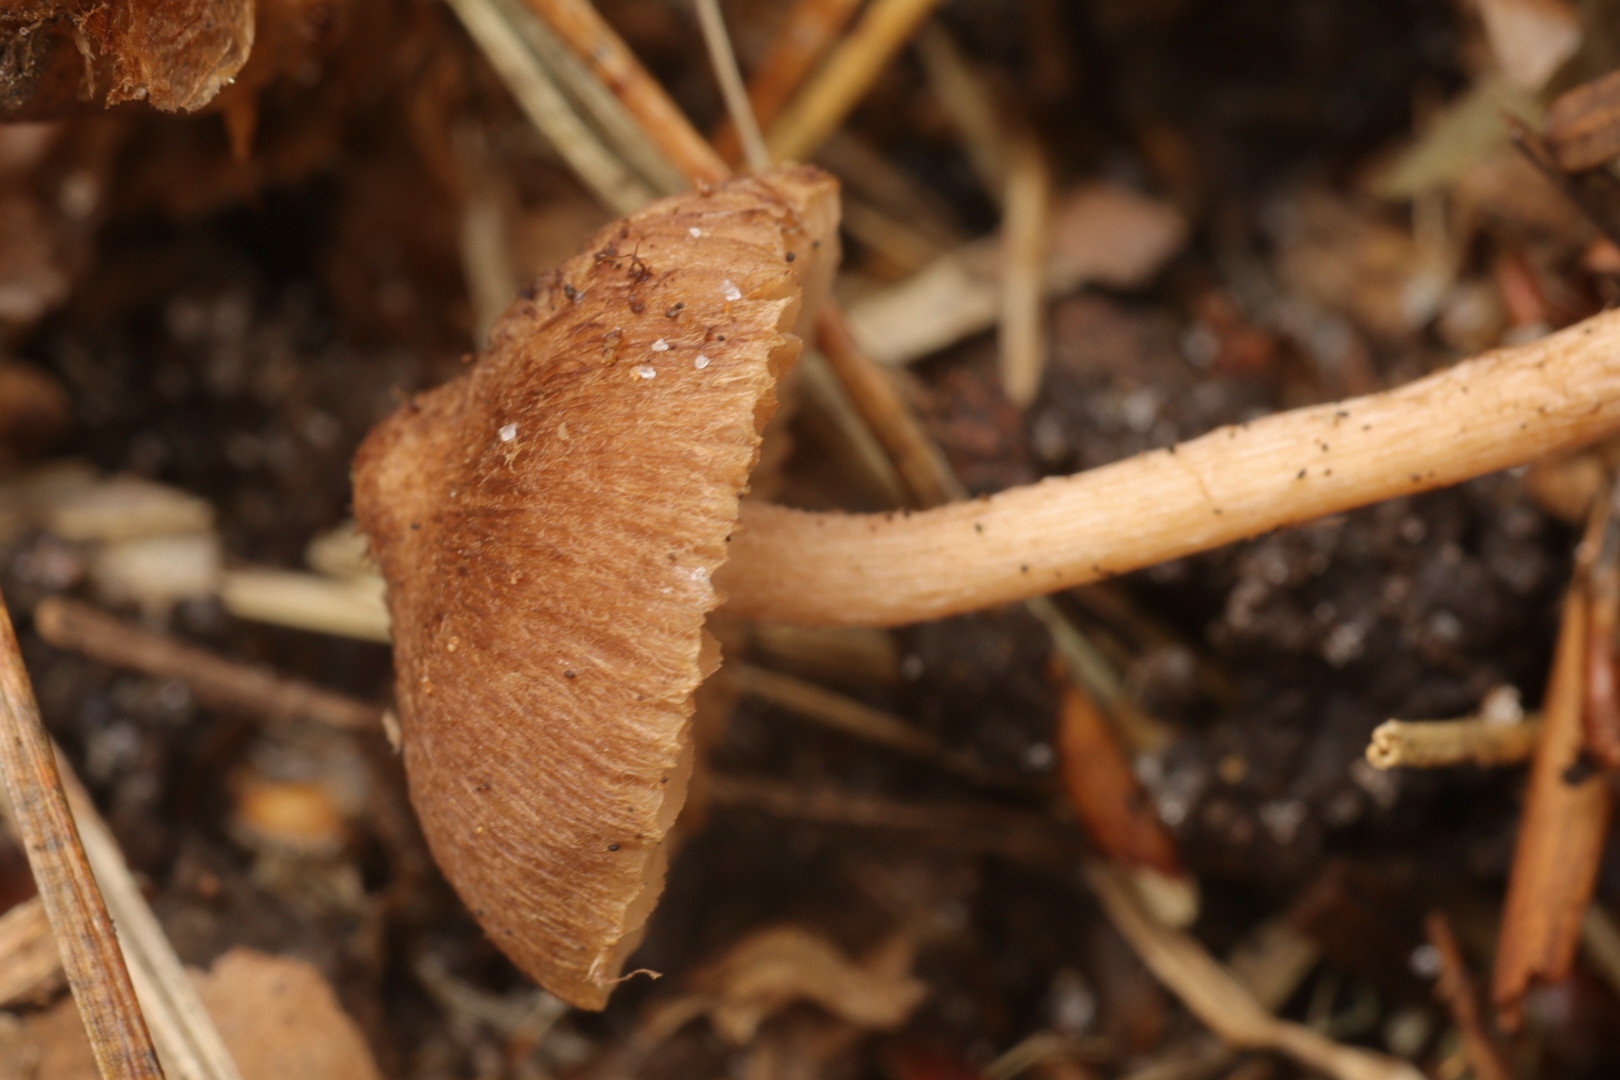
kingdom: Fungi
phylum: Basidiomycota
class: Agaricomycetes
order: Agaricales
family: Inocybaceae
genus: Inocybe
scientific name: Inocybe
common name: trævlhat
